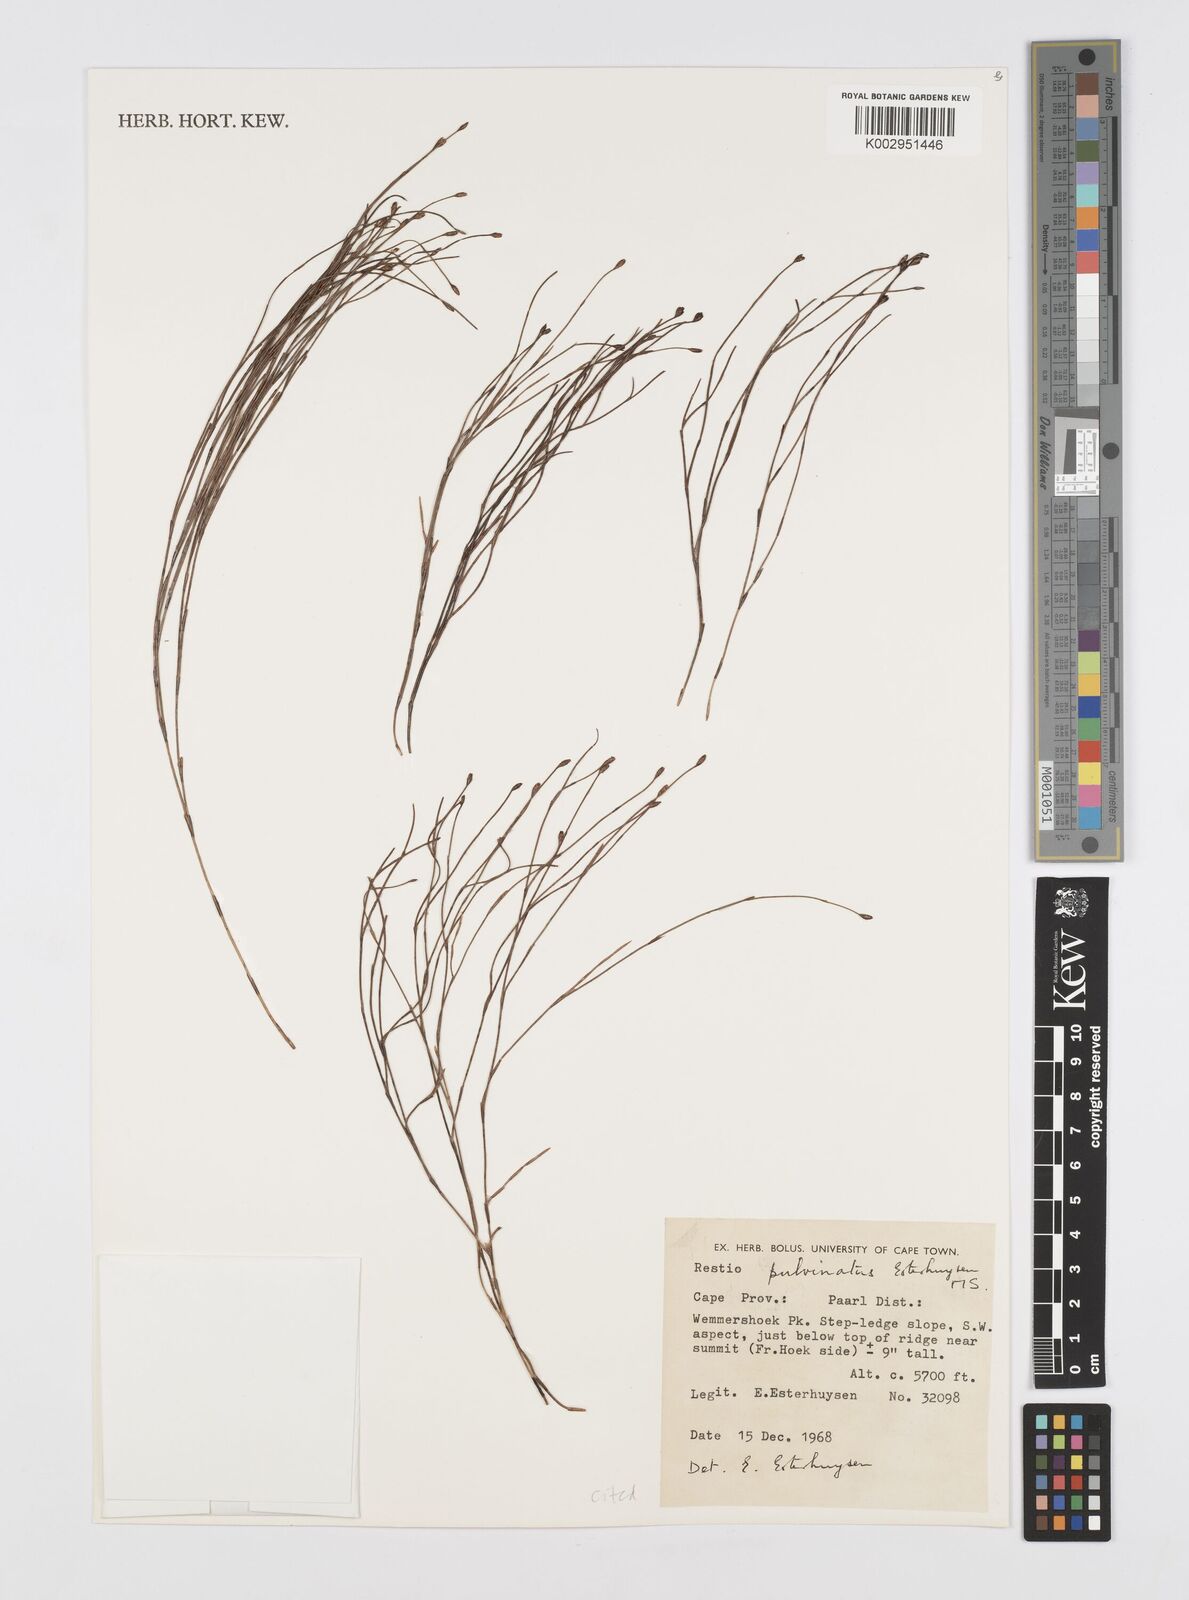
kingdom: Plantae
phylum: Tracheophyta
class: Liliopsida
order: Poales
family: Restionaceae
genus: Restio
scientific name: Restio pulvinatus
